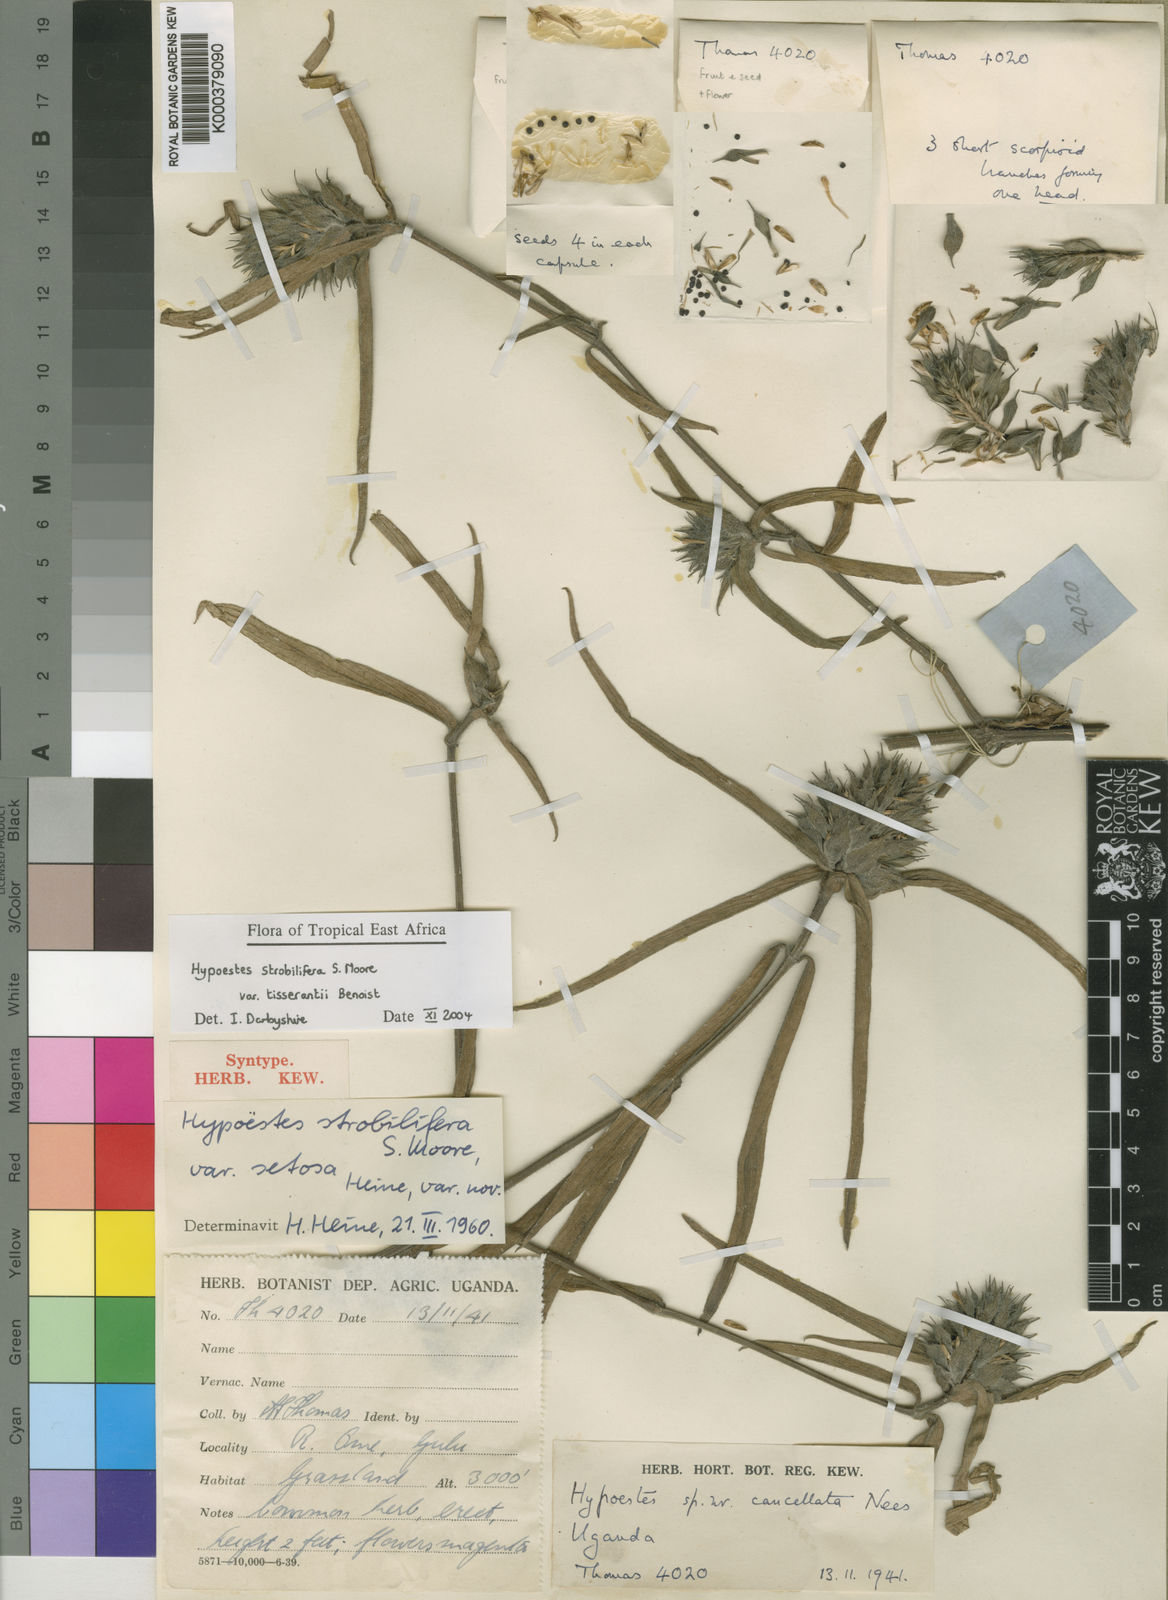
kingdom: Plantae
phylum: Tracheophyta
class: Magnoliopsida
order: Lamiales
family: Acanthaceae
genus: Hypoestes
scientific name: Hypoestes strobilifera
